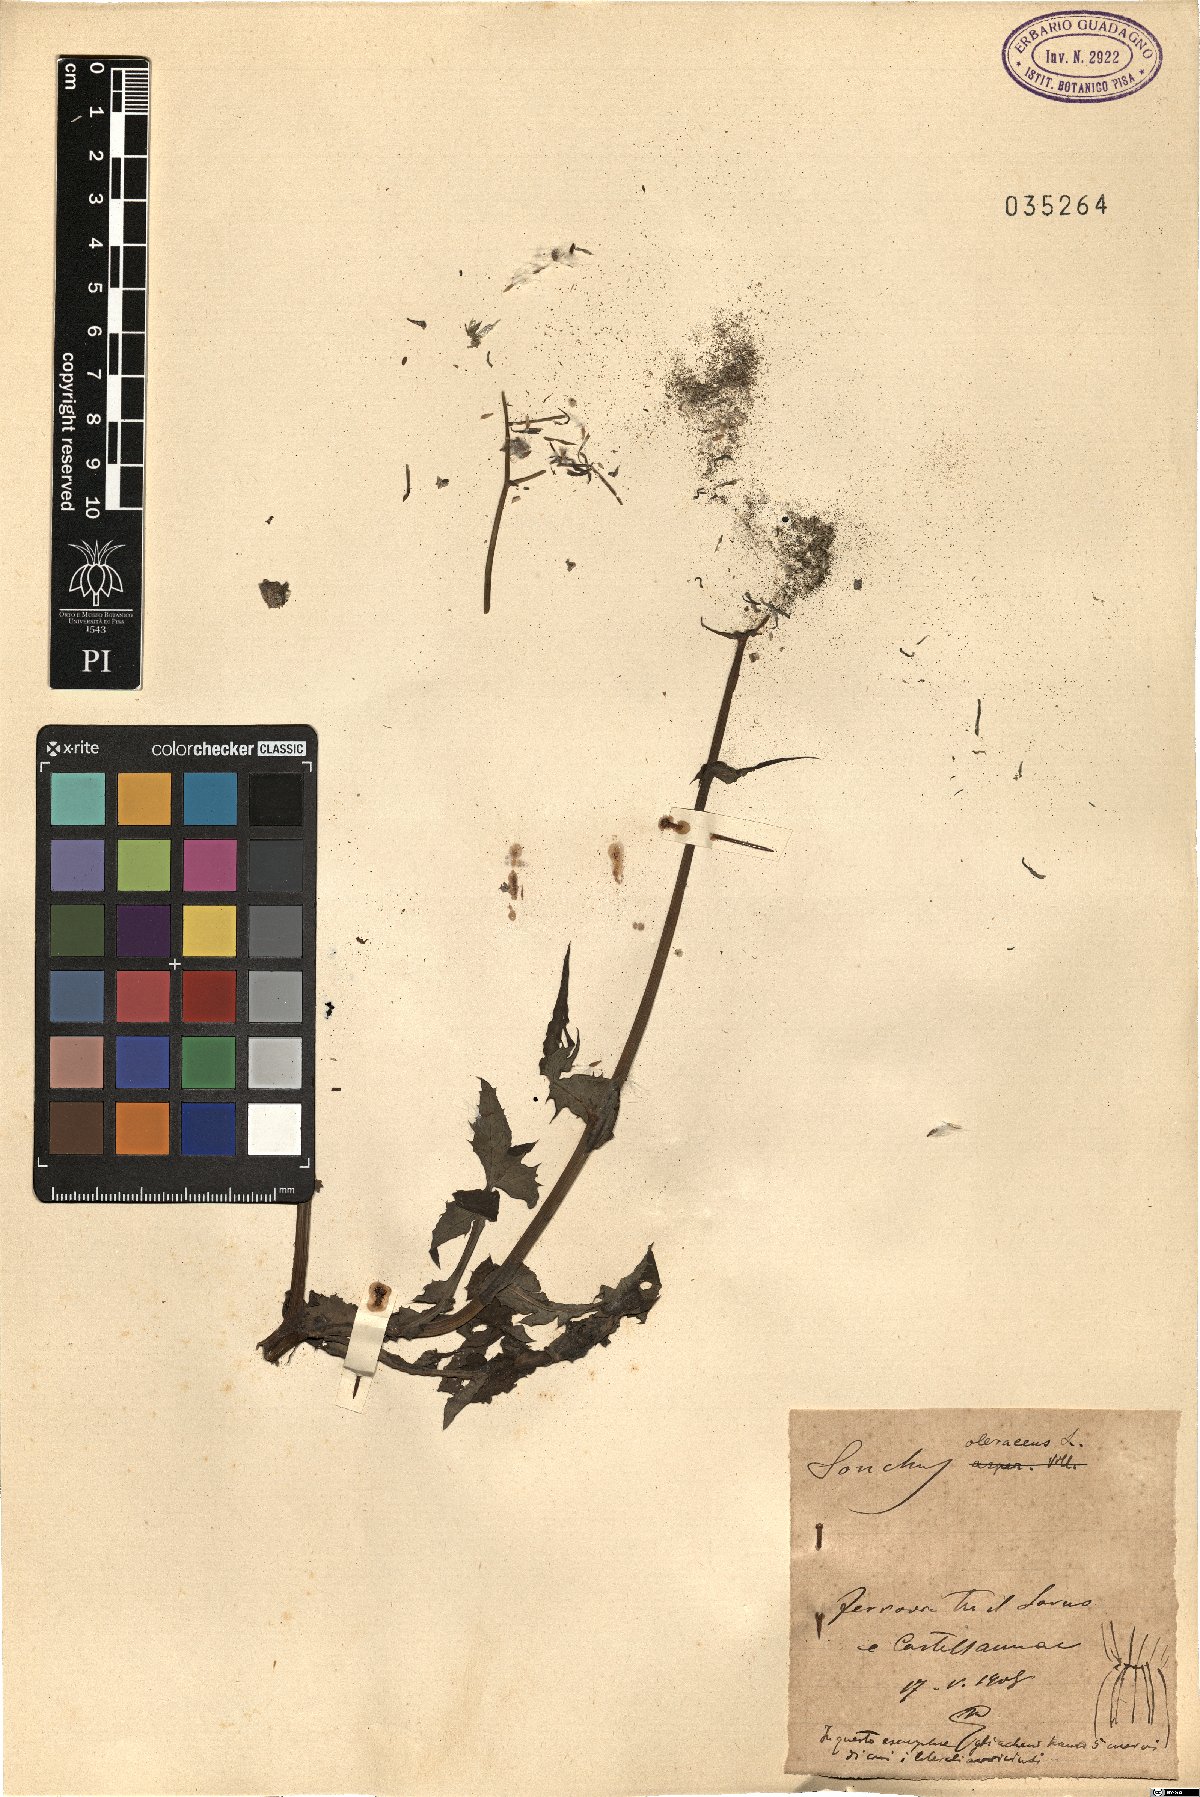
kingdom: Plantae
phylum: Tracheophyta
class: Magnoliopsida
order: Asterales
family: Asteraceae
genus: Sonchus
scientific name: Sonchus oleraceus
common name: Common sowthistle
